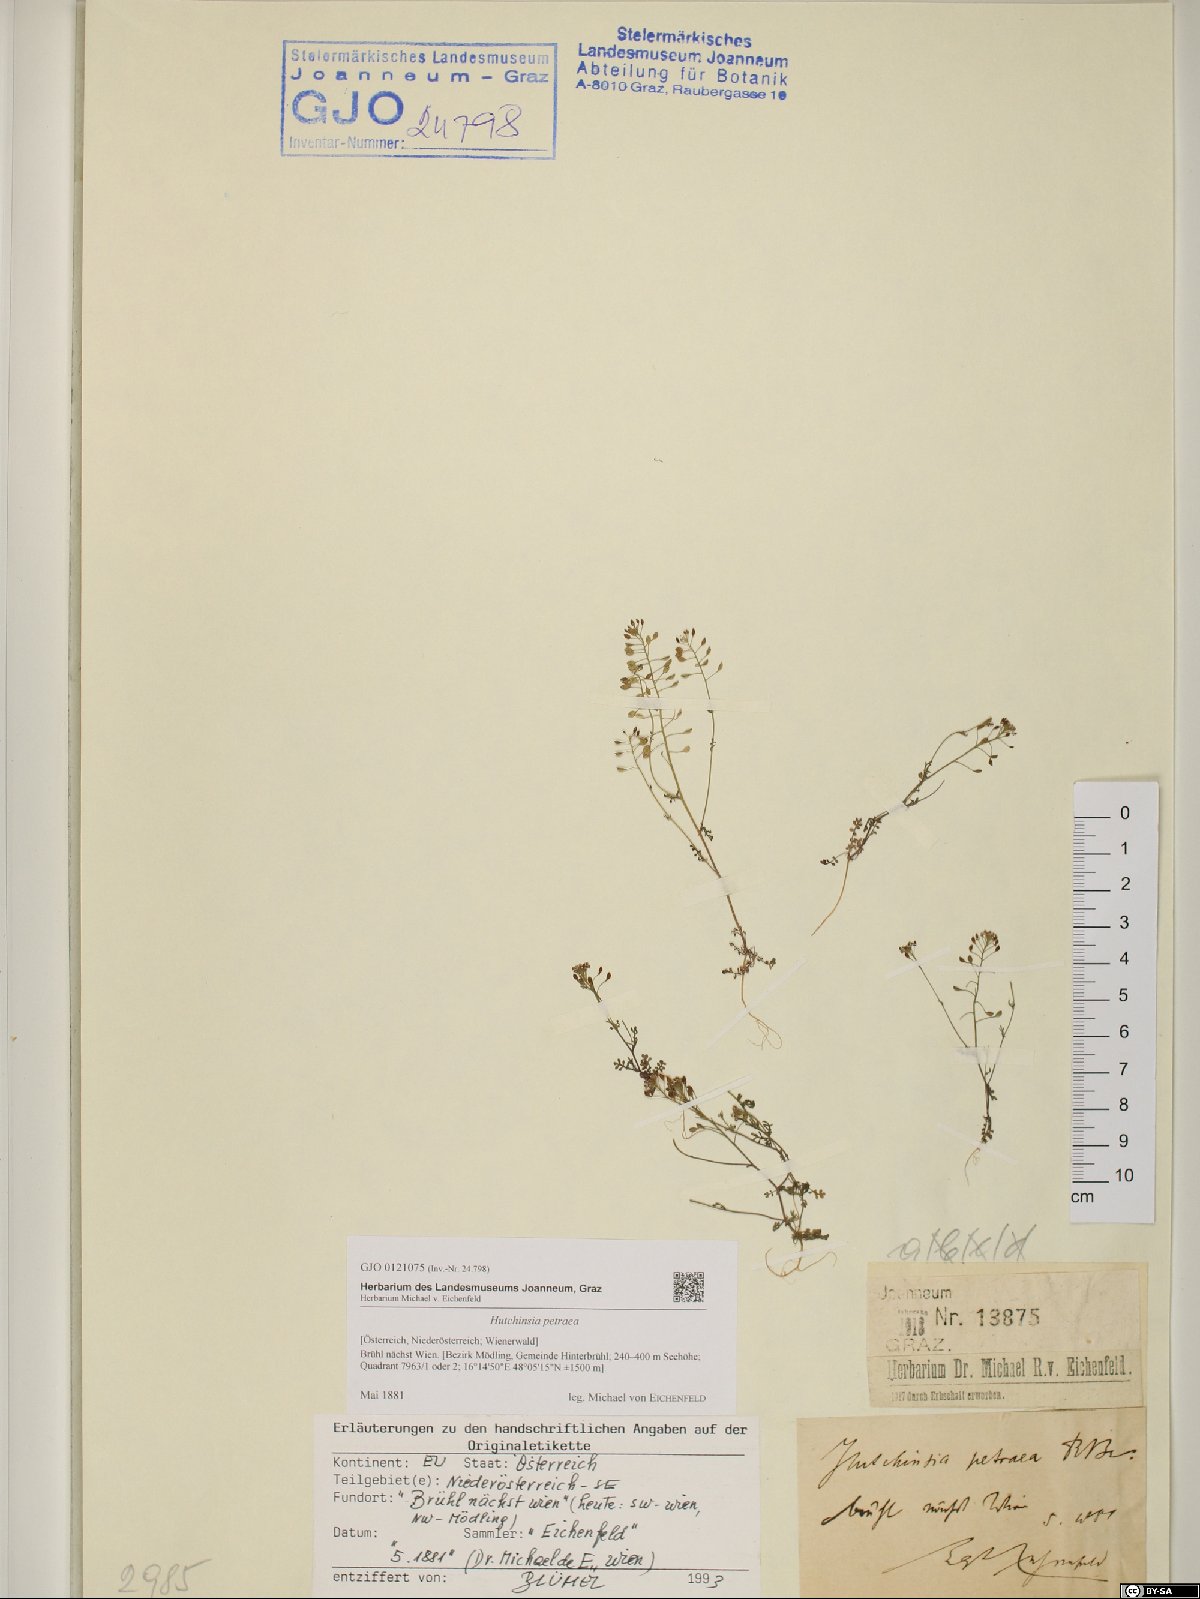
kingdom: Plantae
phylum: Tracheophyta
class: Magnoliopsida
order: Brassicales
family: Brassicaceae
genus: Hornungia
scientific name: Hornungia petraea
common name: Hutchinsia
